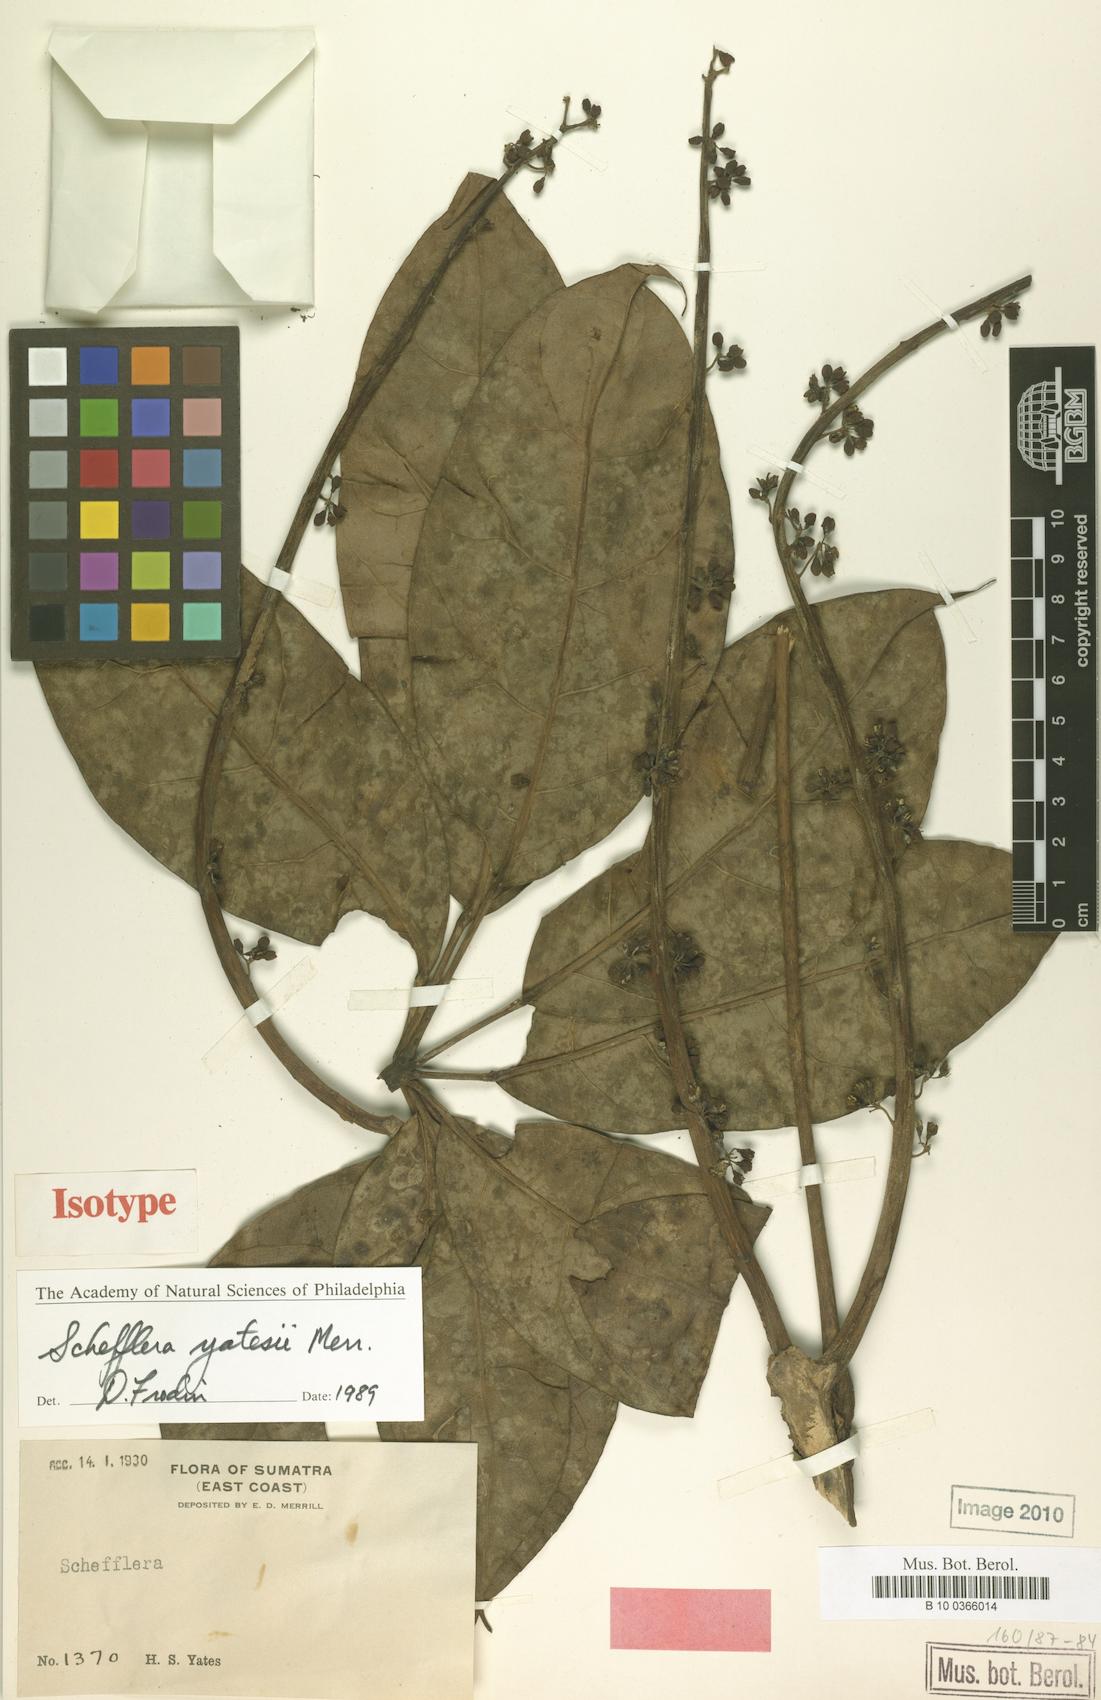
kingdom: Plantae
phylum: Tracheophyta
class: Magnoliopsida
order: Apiales
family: Araliaceae
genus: Heptapleurum
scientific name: Heptapleurum yatesii
